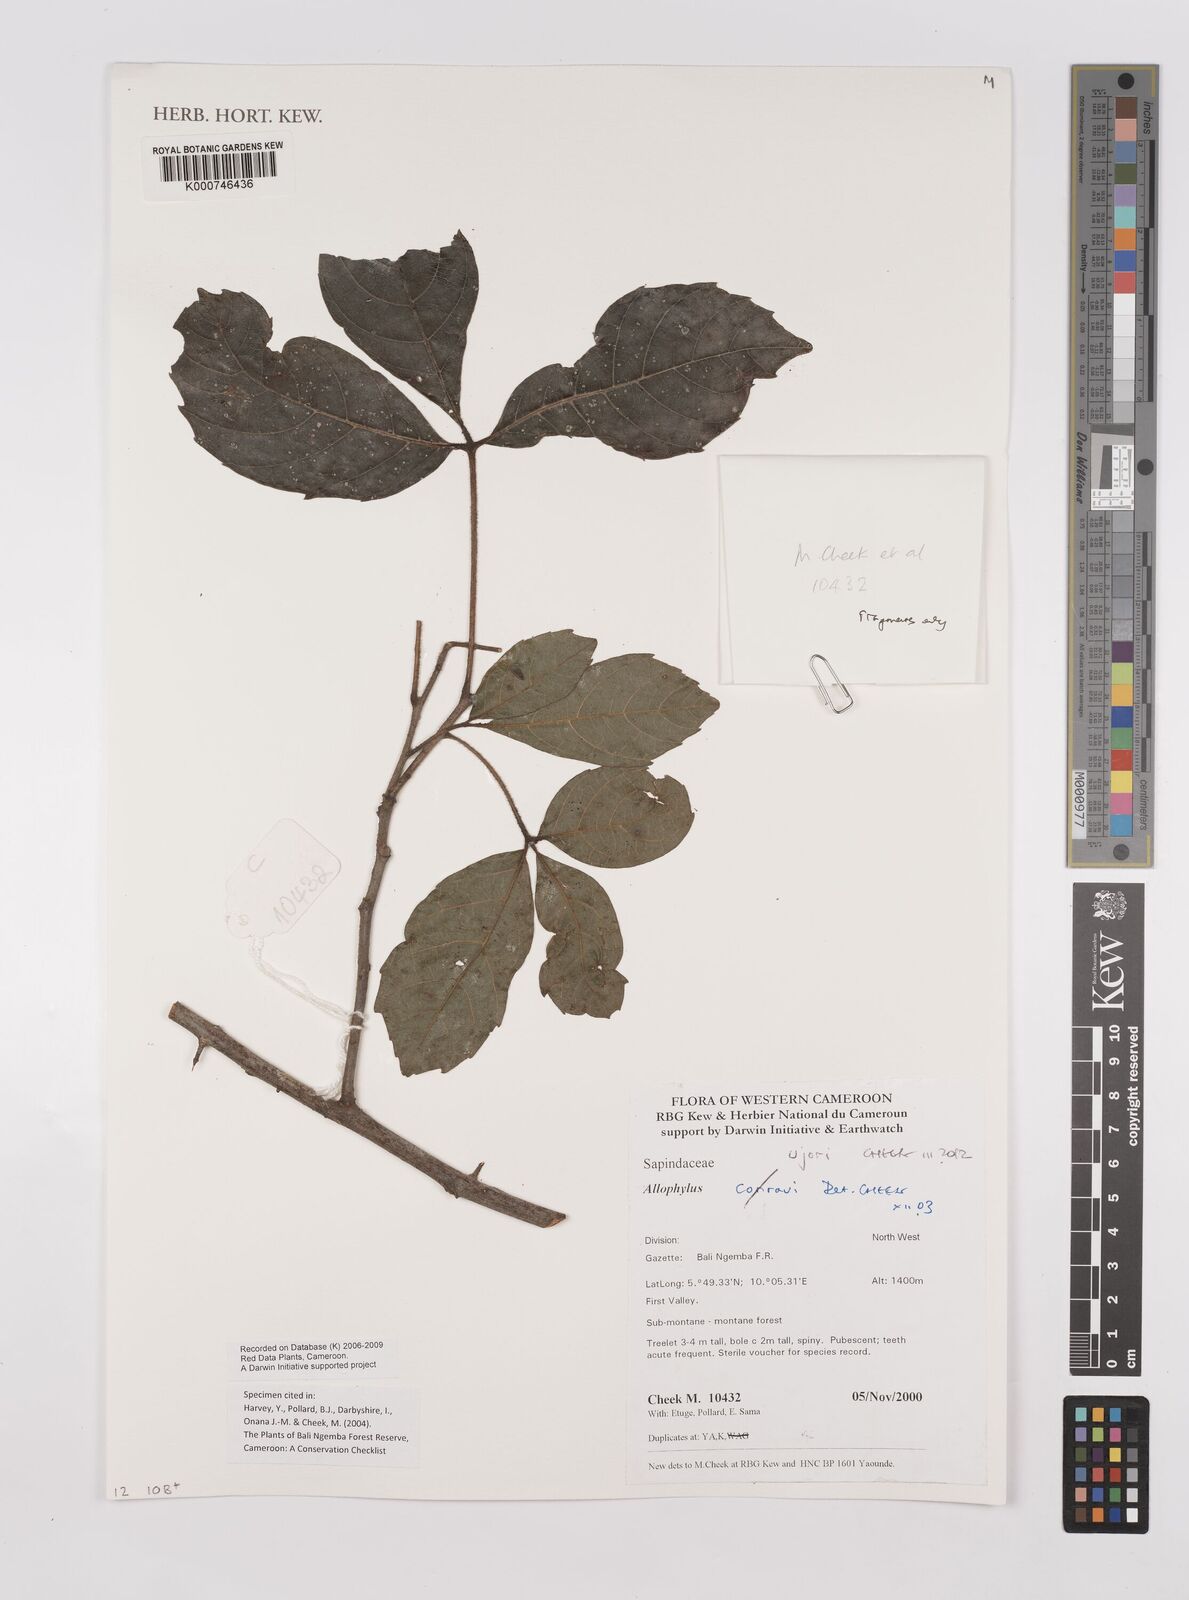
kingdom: Plantae
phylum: Tracheophyta
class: Magnoliopsida
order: Sapindales
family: Sapindaceae
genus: Allophylus
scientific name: Allophylus ujori
